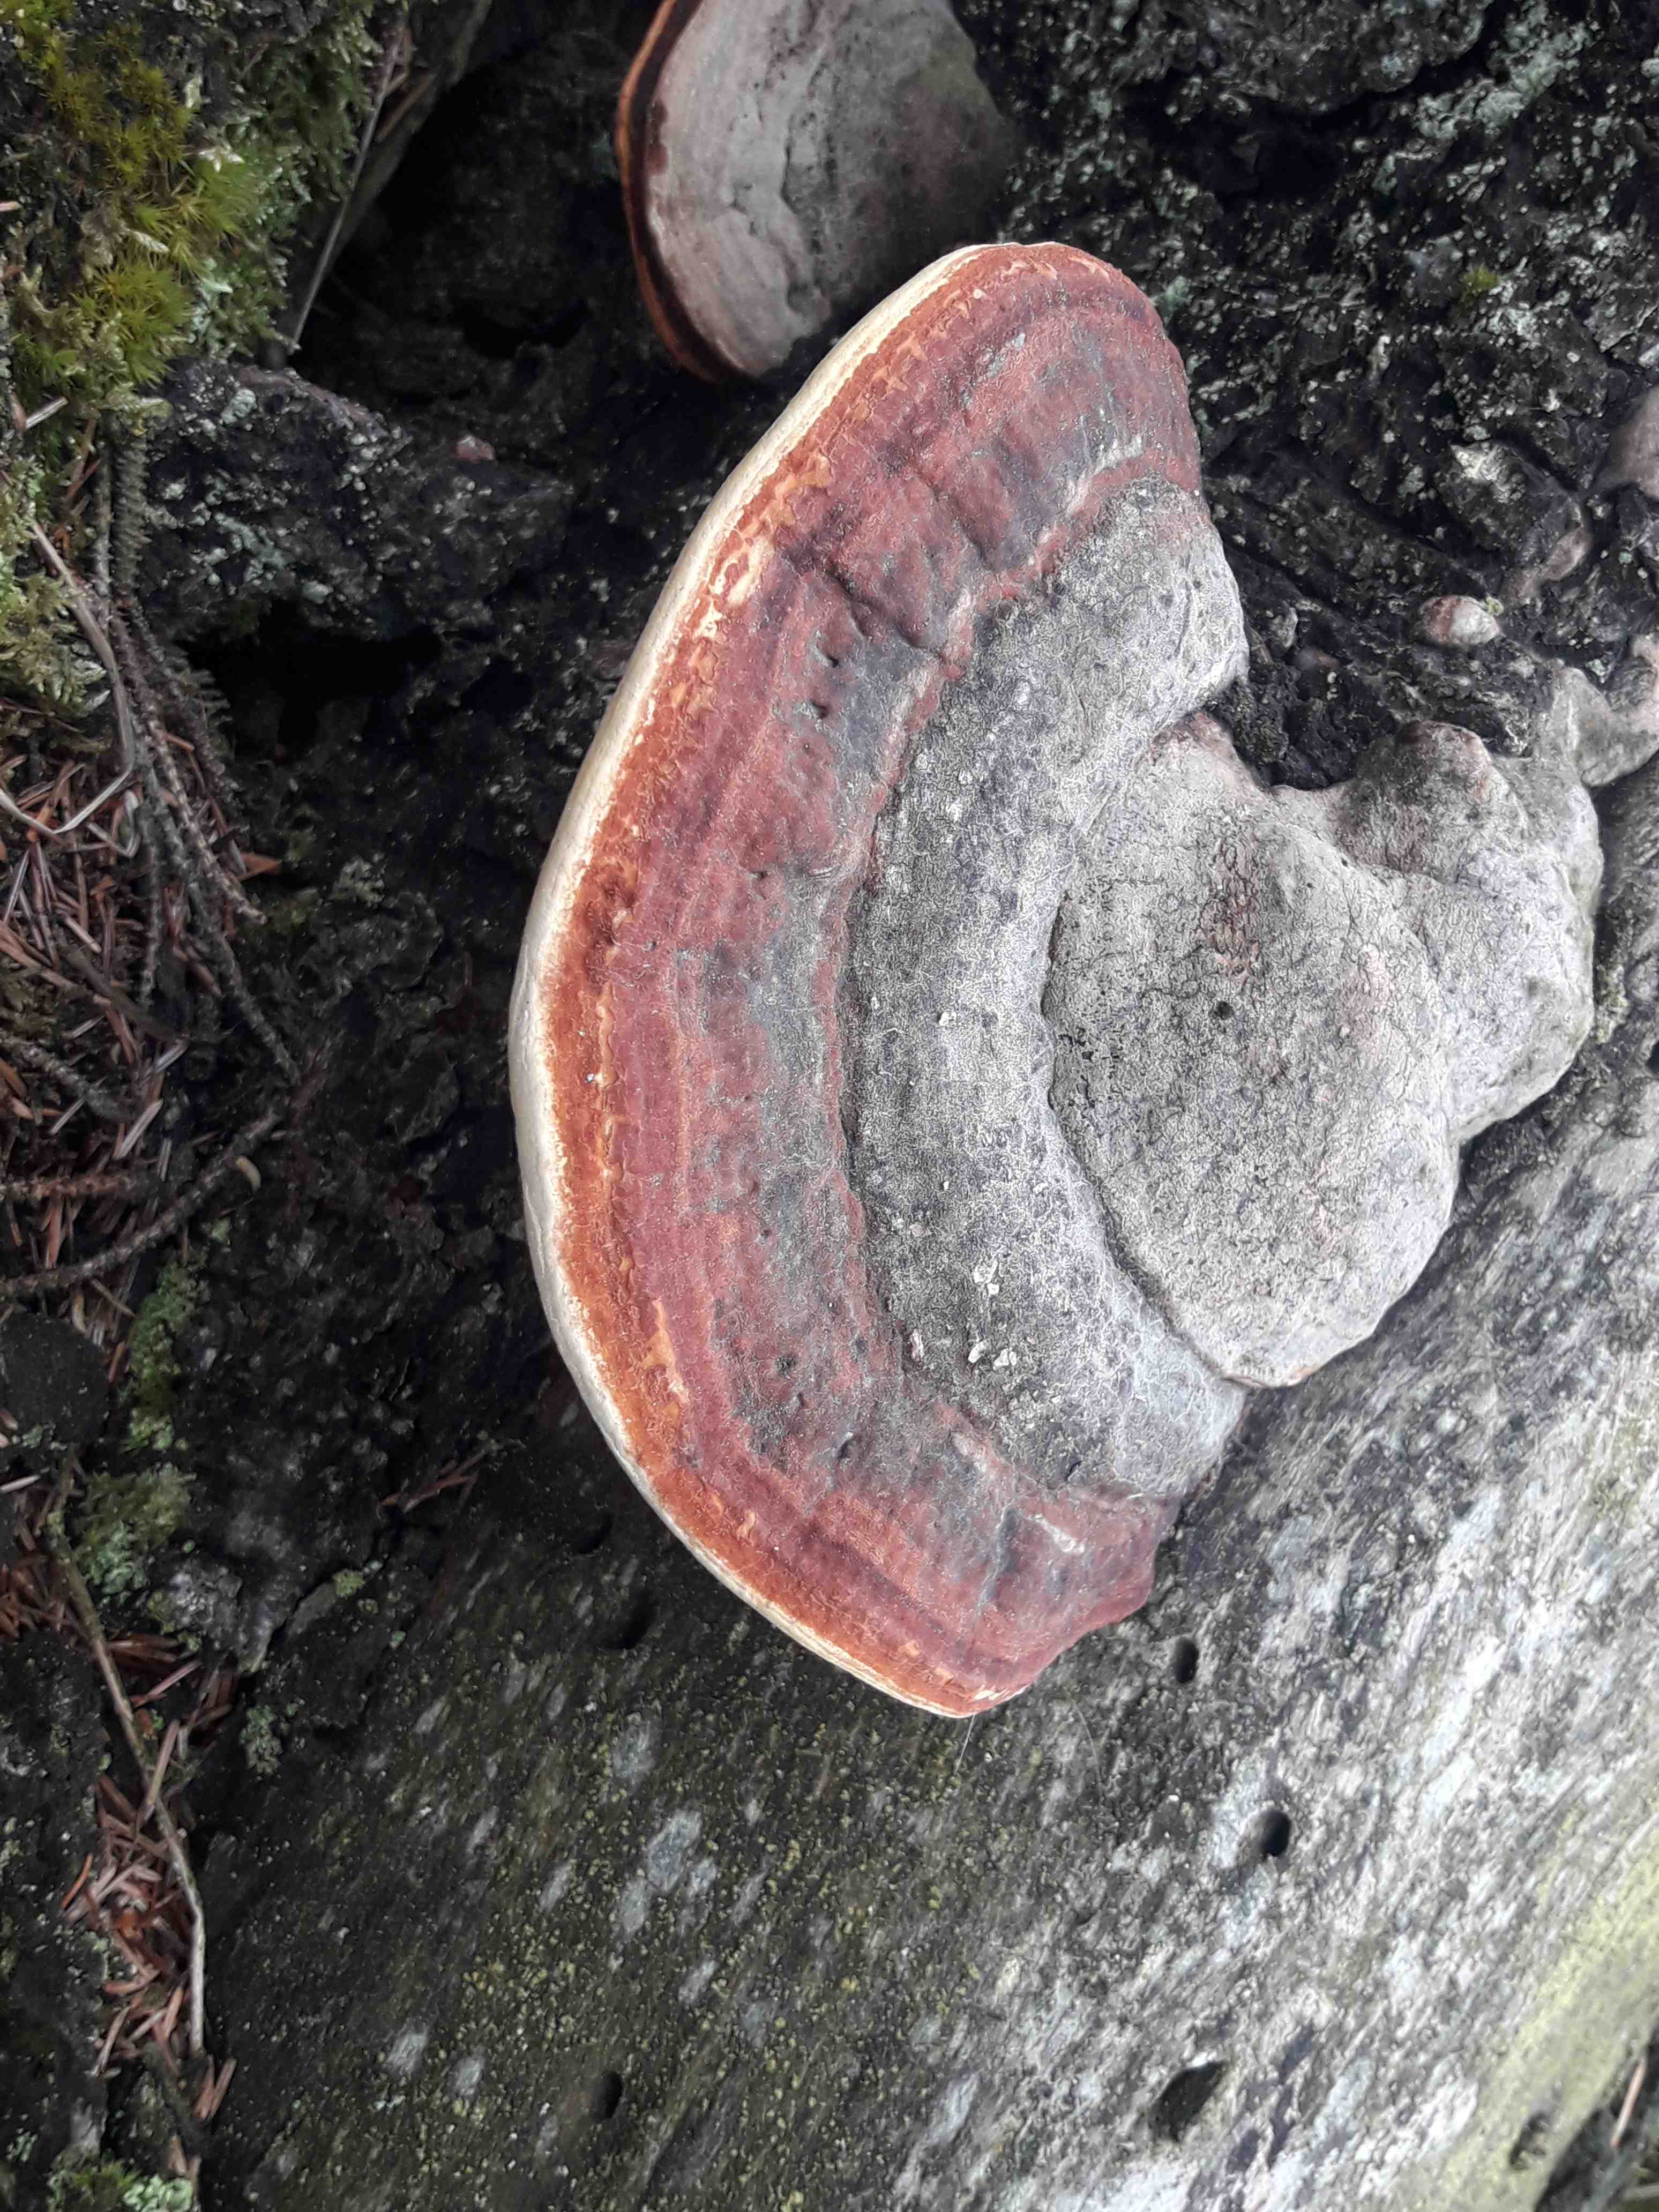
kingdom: Fungi
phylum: Basidiomycota
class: Agaricomycetes
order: Polyporales
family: Fomitopsidaceae
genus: Fomitopsis
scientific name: Fomitopsis pinicola
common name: randbæltet hovporesvamp
